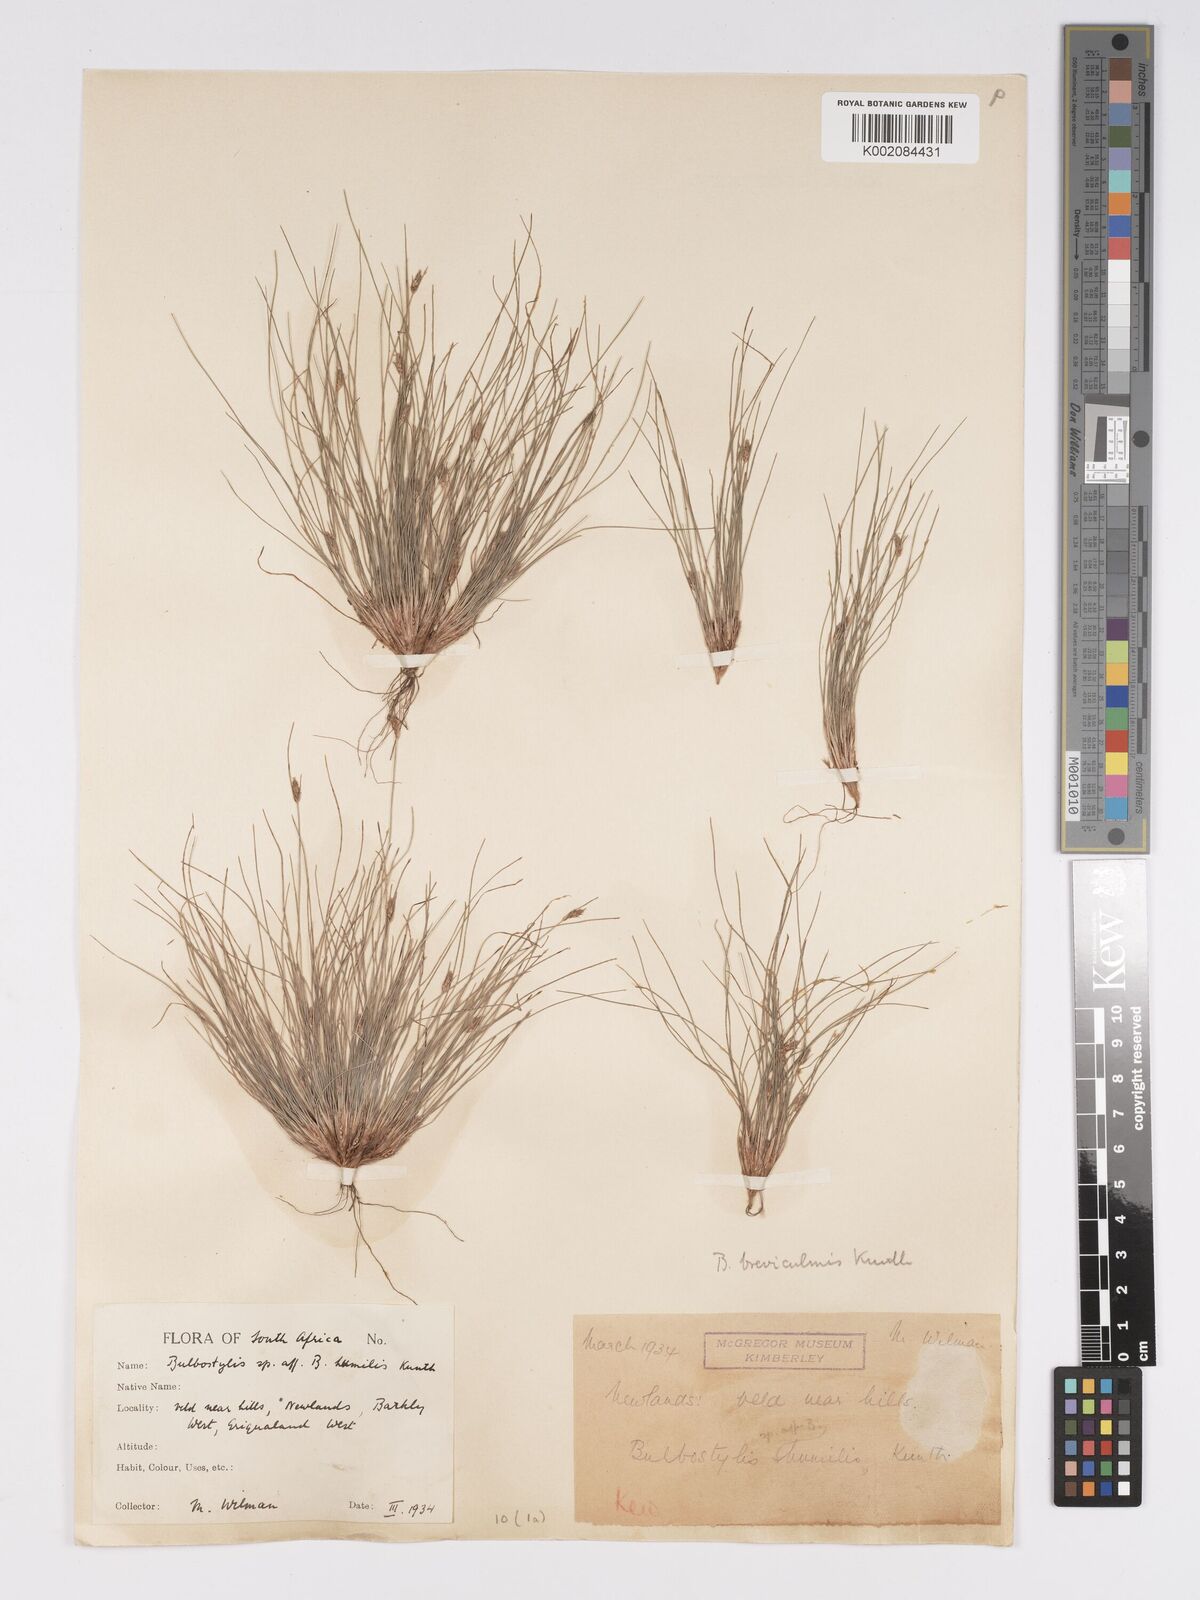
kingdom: Plantae
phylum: Tracheophyta
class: Liliopsida
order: Poales
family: Cyperaceae
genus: Bulbostylis
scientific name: Bulbostylis humilis
